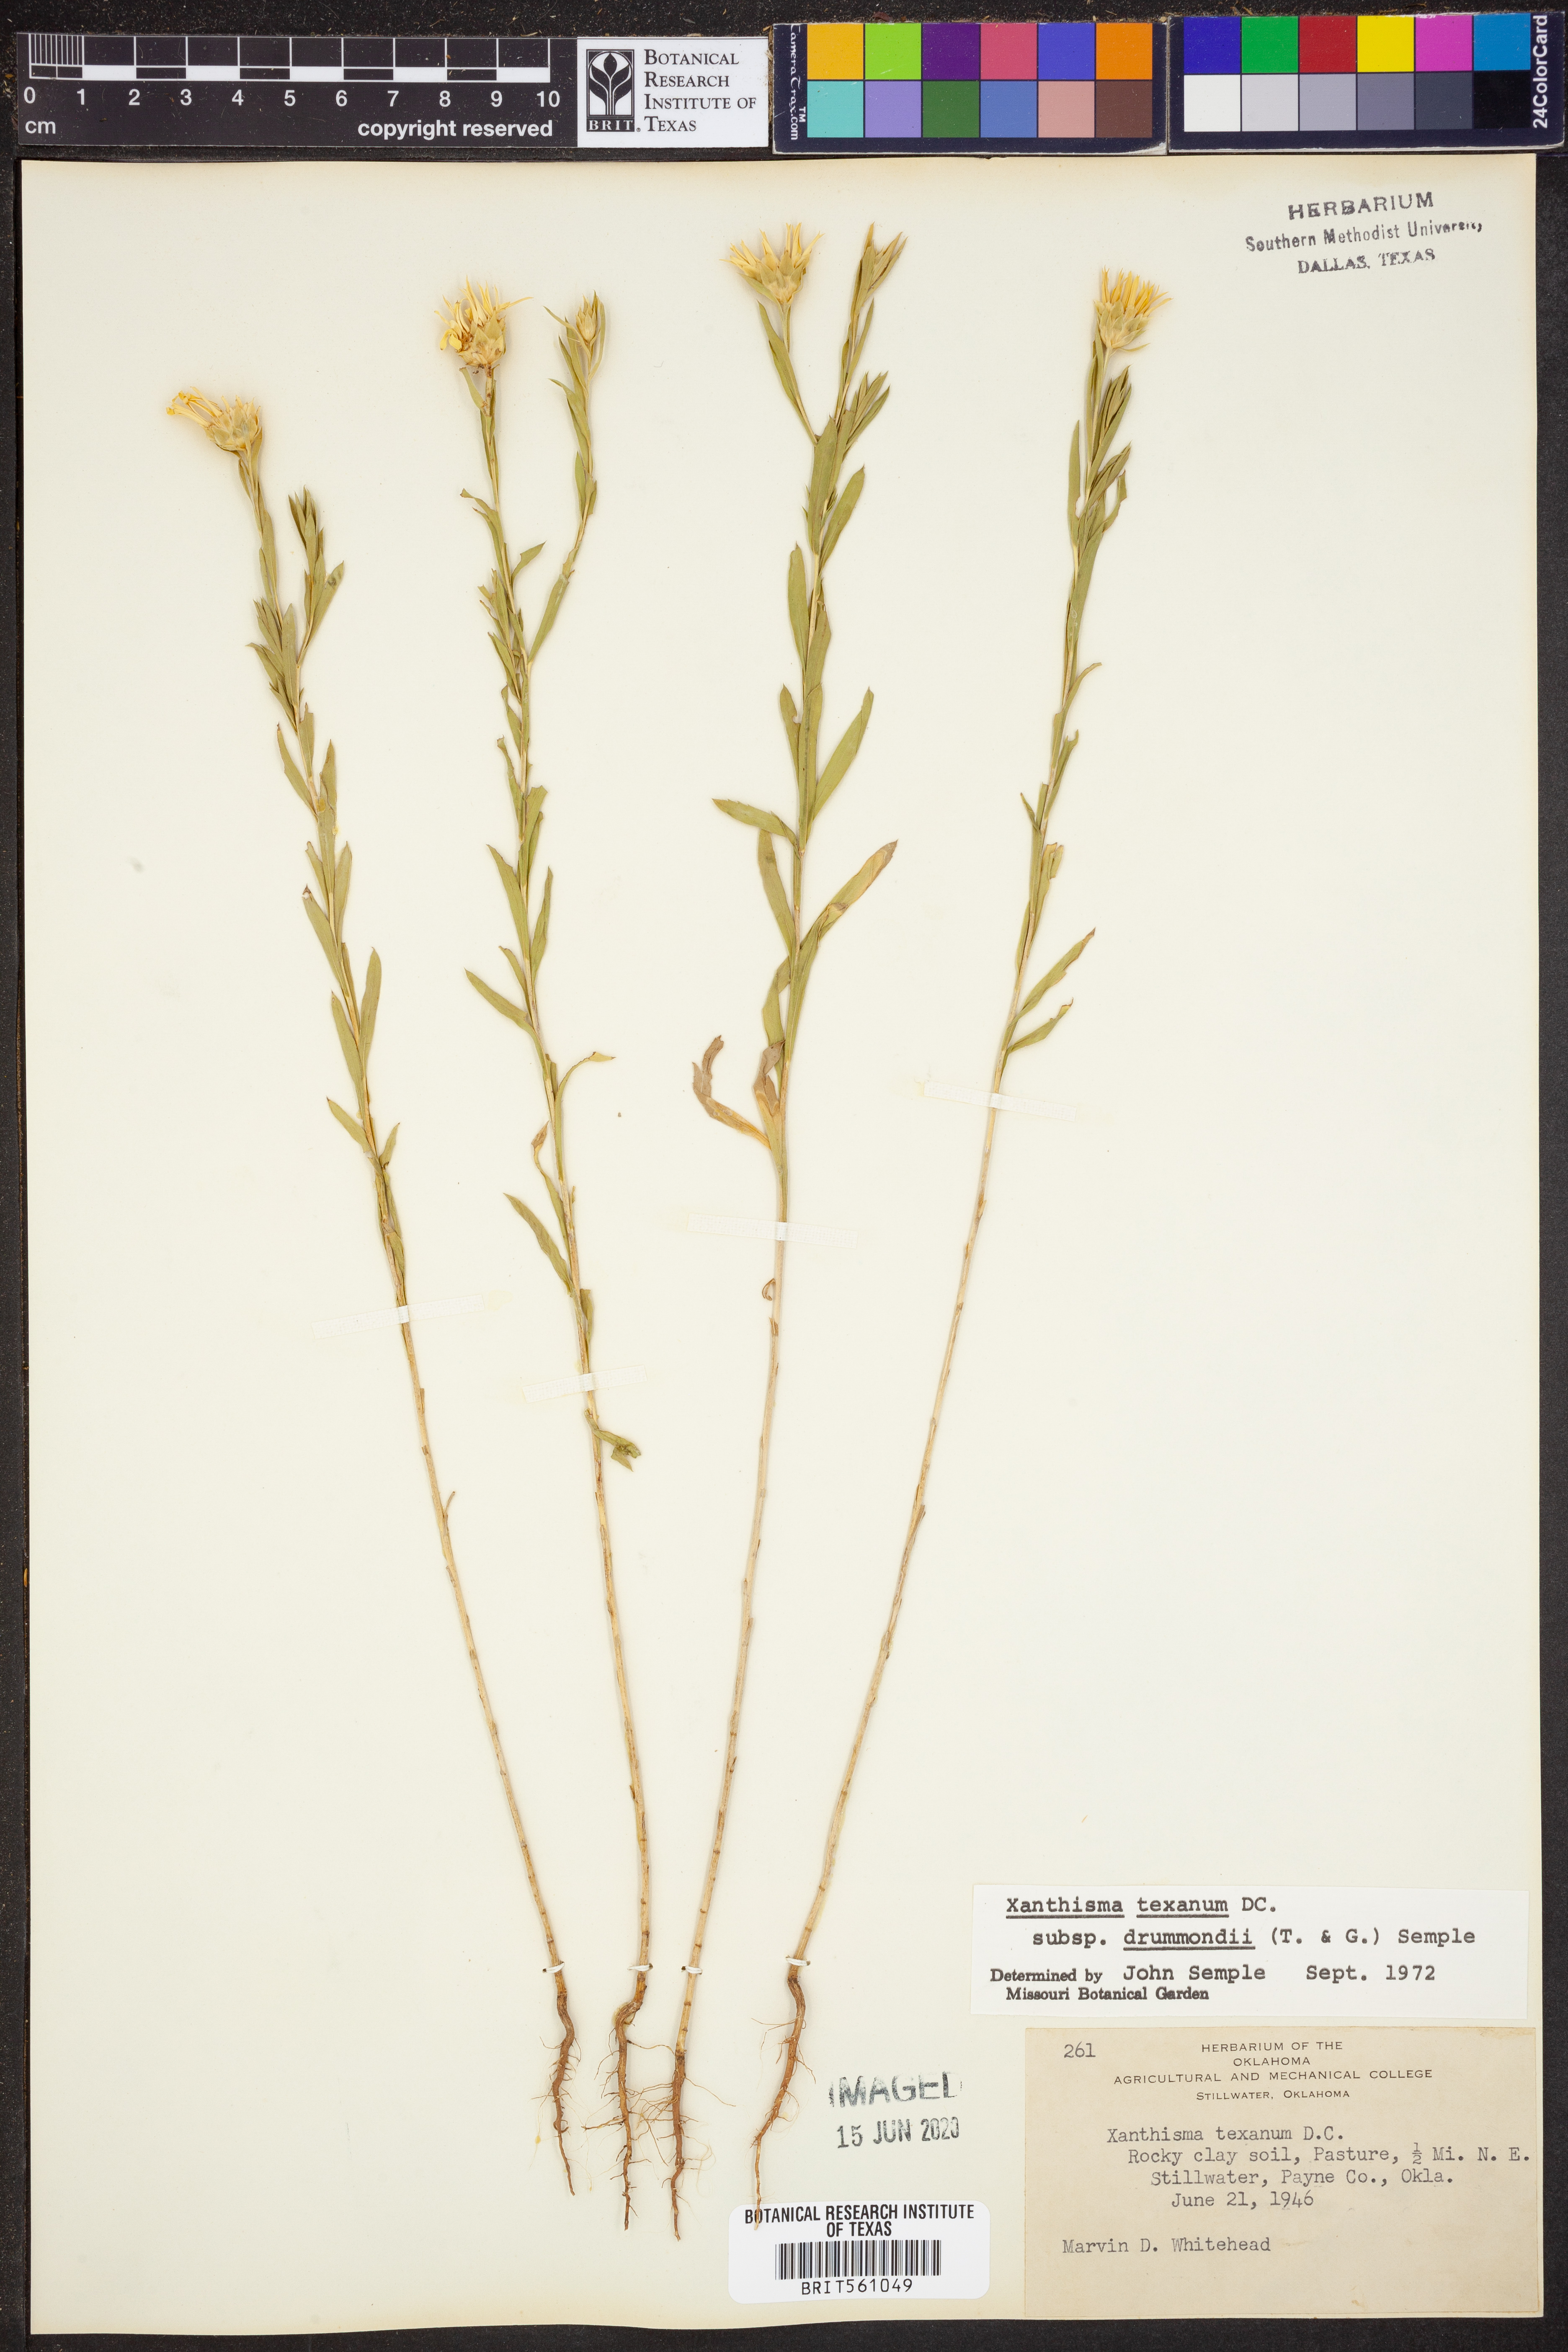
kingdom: Plantae
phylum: Tracheophyta
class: Magnoliopsida
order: Asterales
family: Asteraceae
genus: Xanthisma
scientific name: Xanthisma texanum
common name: Texas sleepy daisy
